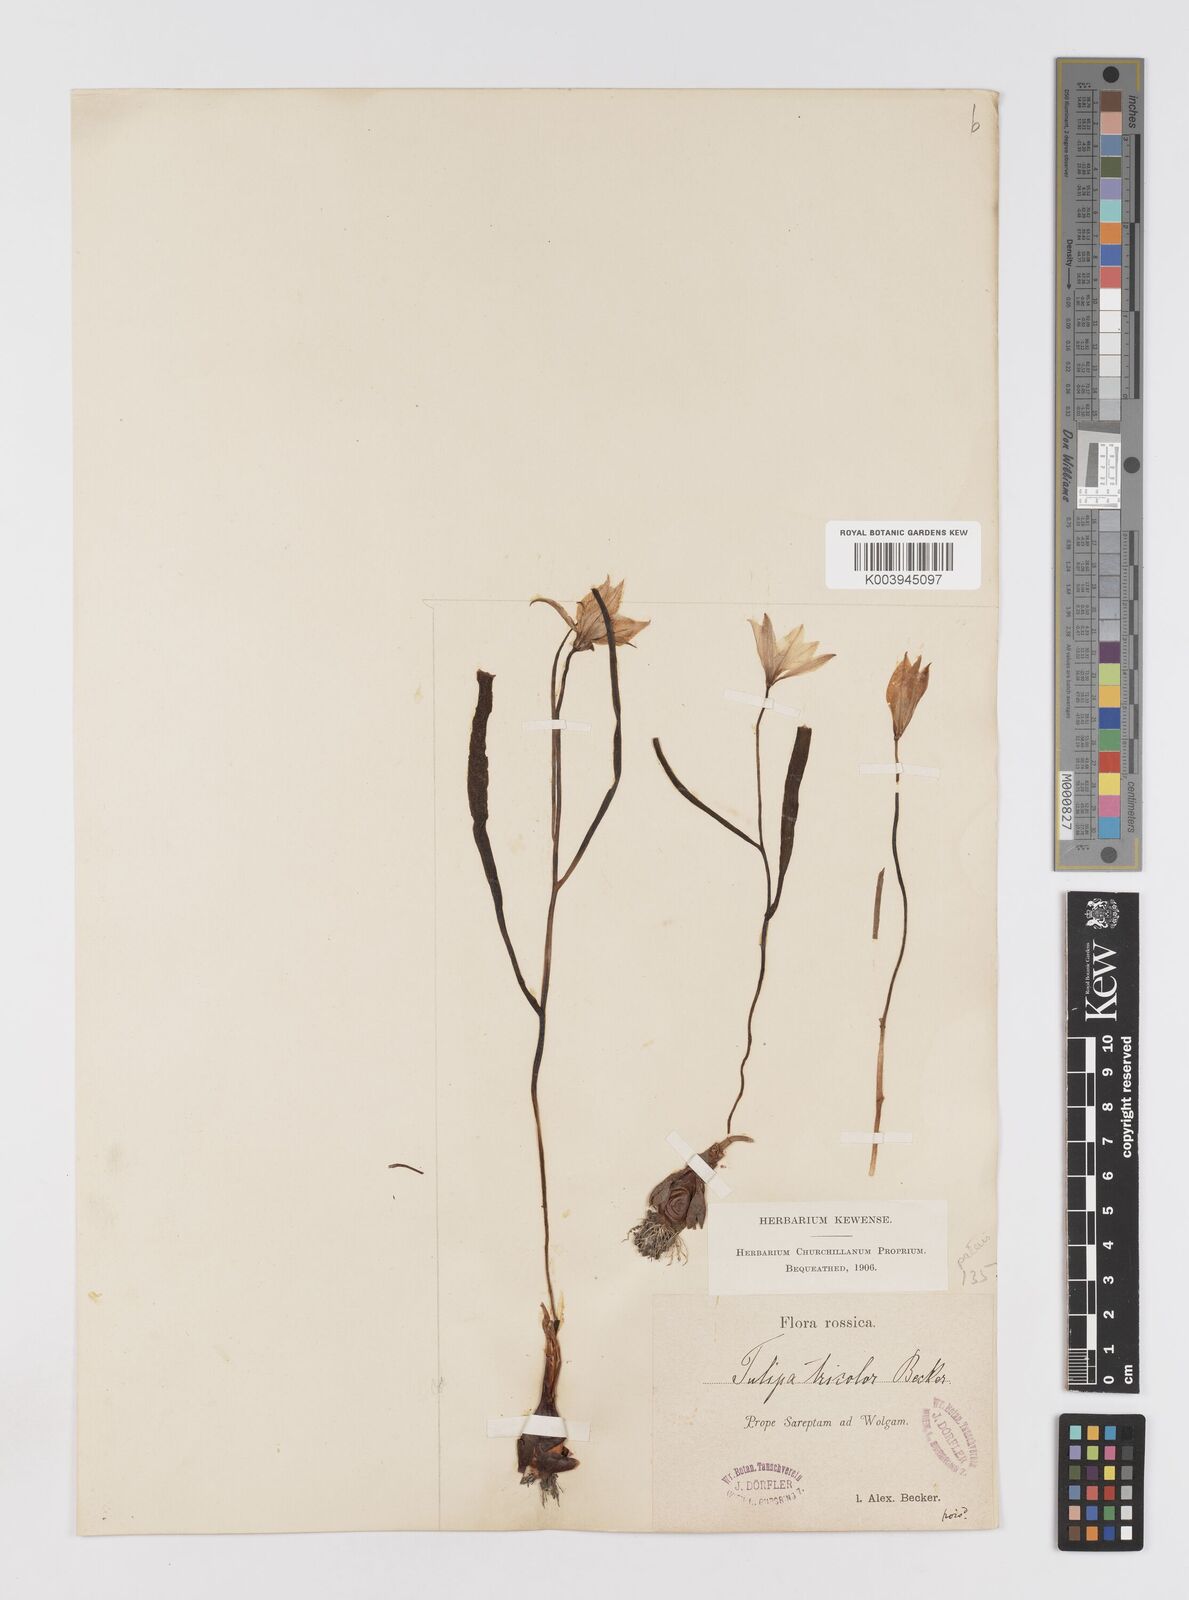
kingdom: Plantae
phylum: Tracheophyta
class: Liliopsida
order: Liliales
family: Liliaceae
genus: Tulipa
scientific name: Tulipa biflora
